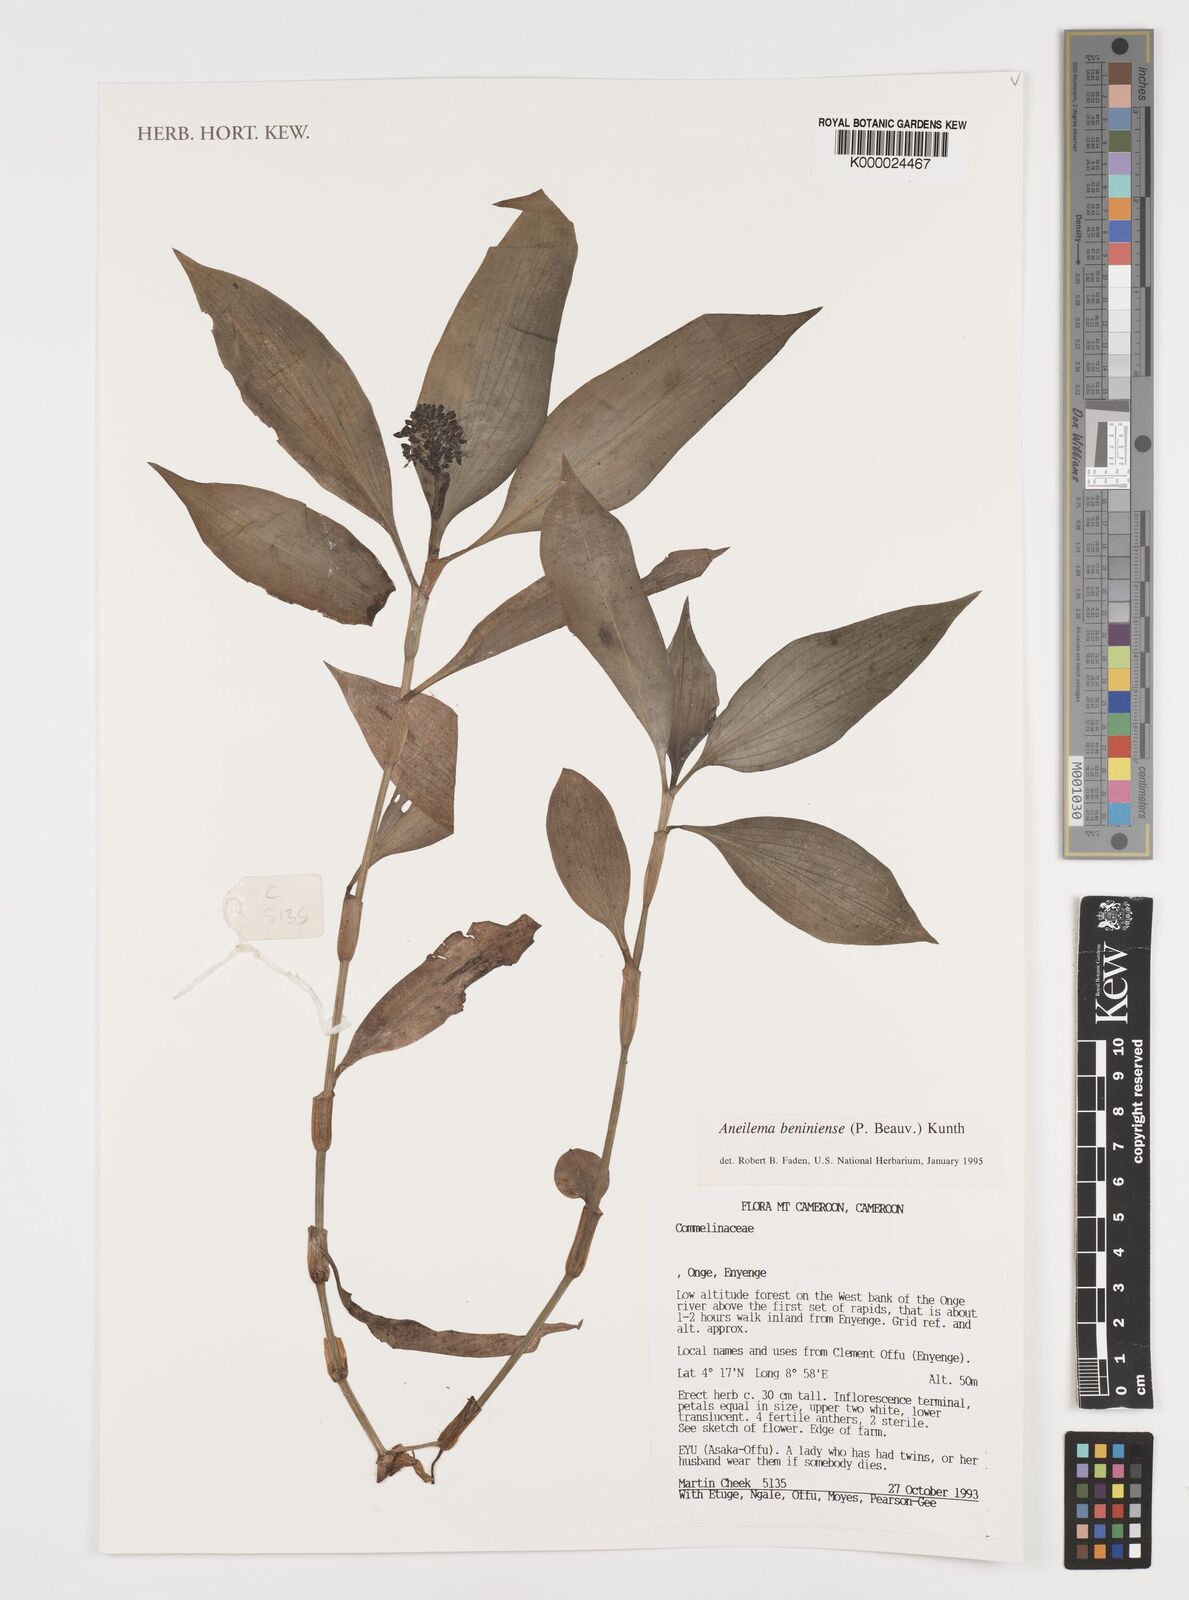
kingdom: Plantae
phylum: Tracheophyta
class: Liliopsida
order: Commelinales
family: Commelinaceae
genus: Aneilema
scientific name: Aneilema beniniense
